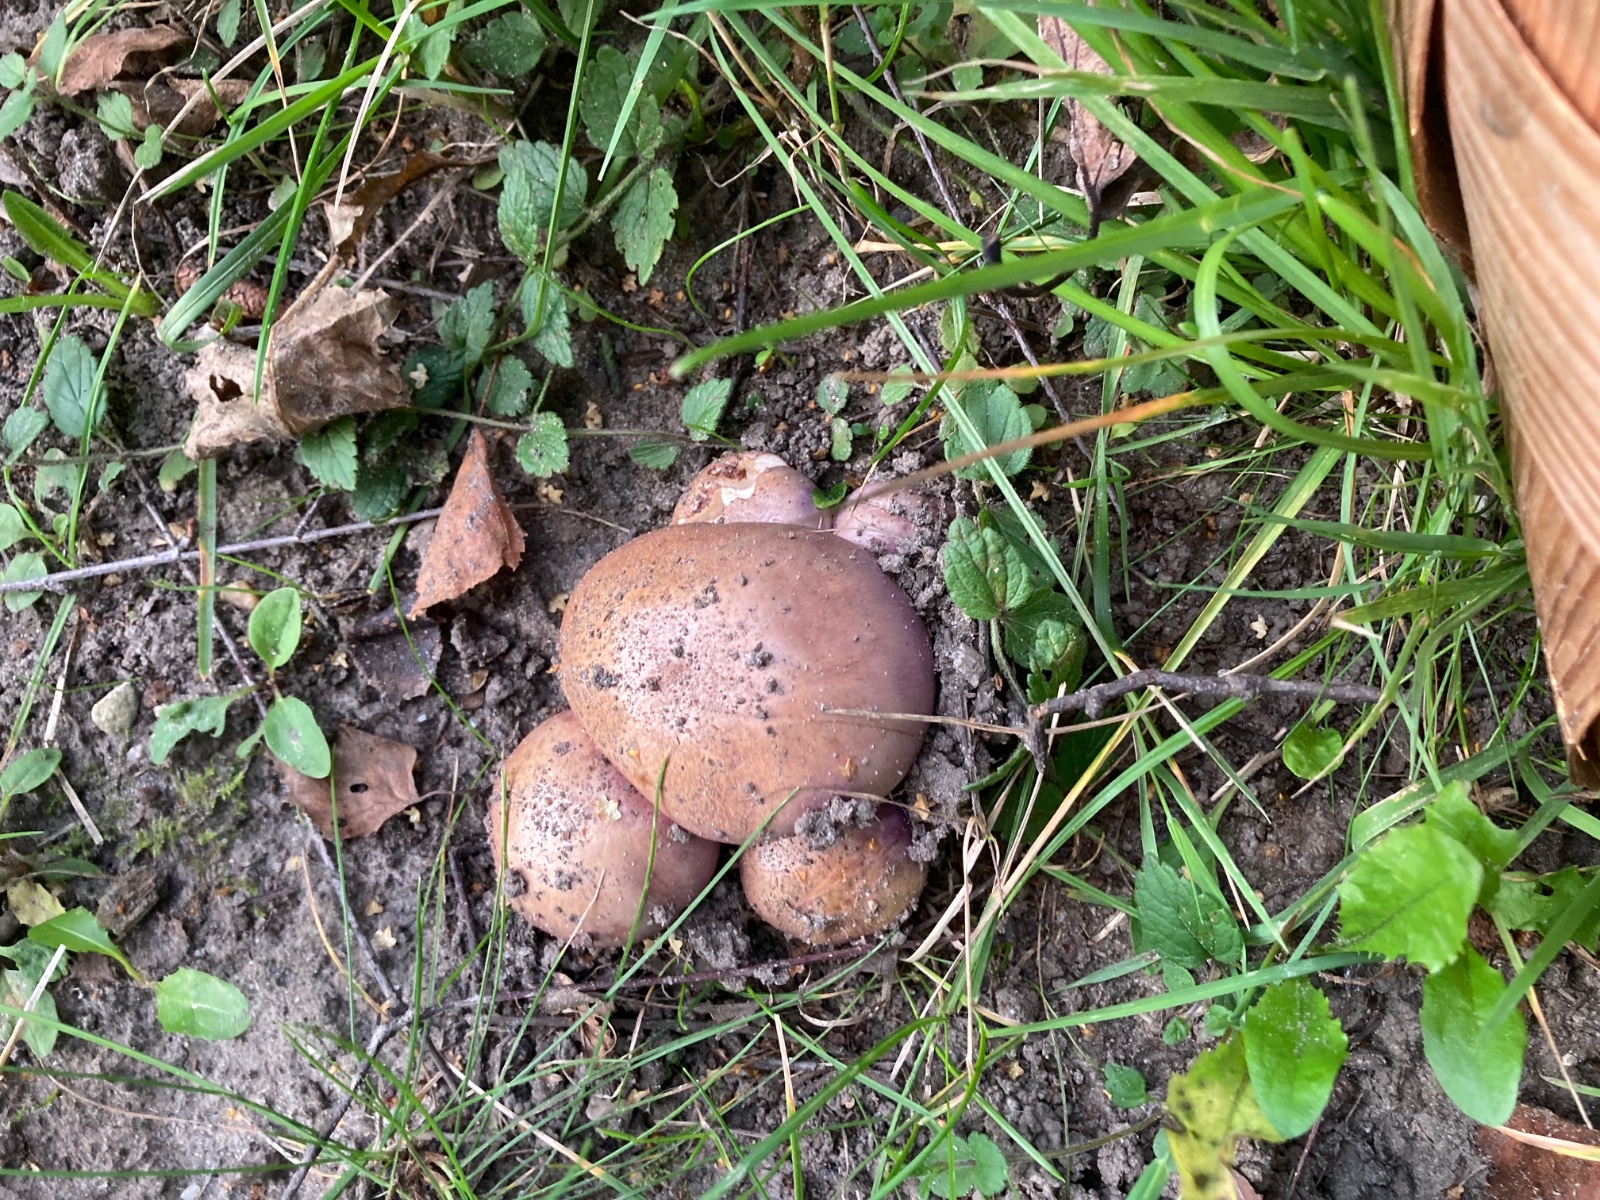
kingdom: Fungi
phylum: Basidiomycota
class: Agaricomycetes
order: Agaricales
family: Cortinariaceae
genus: Phlegmacium
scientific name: Phlegmacium balteatocumatile
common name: violettrådet slørhat
